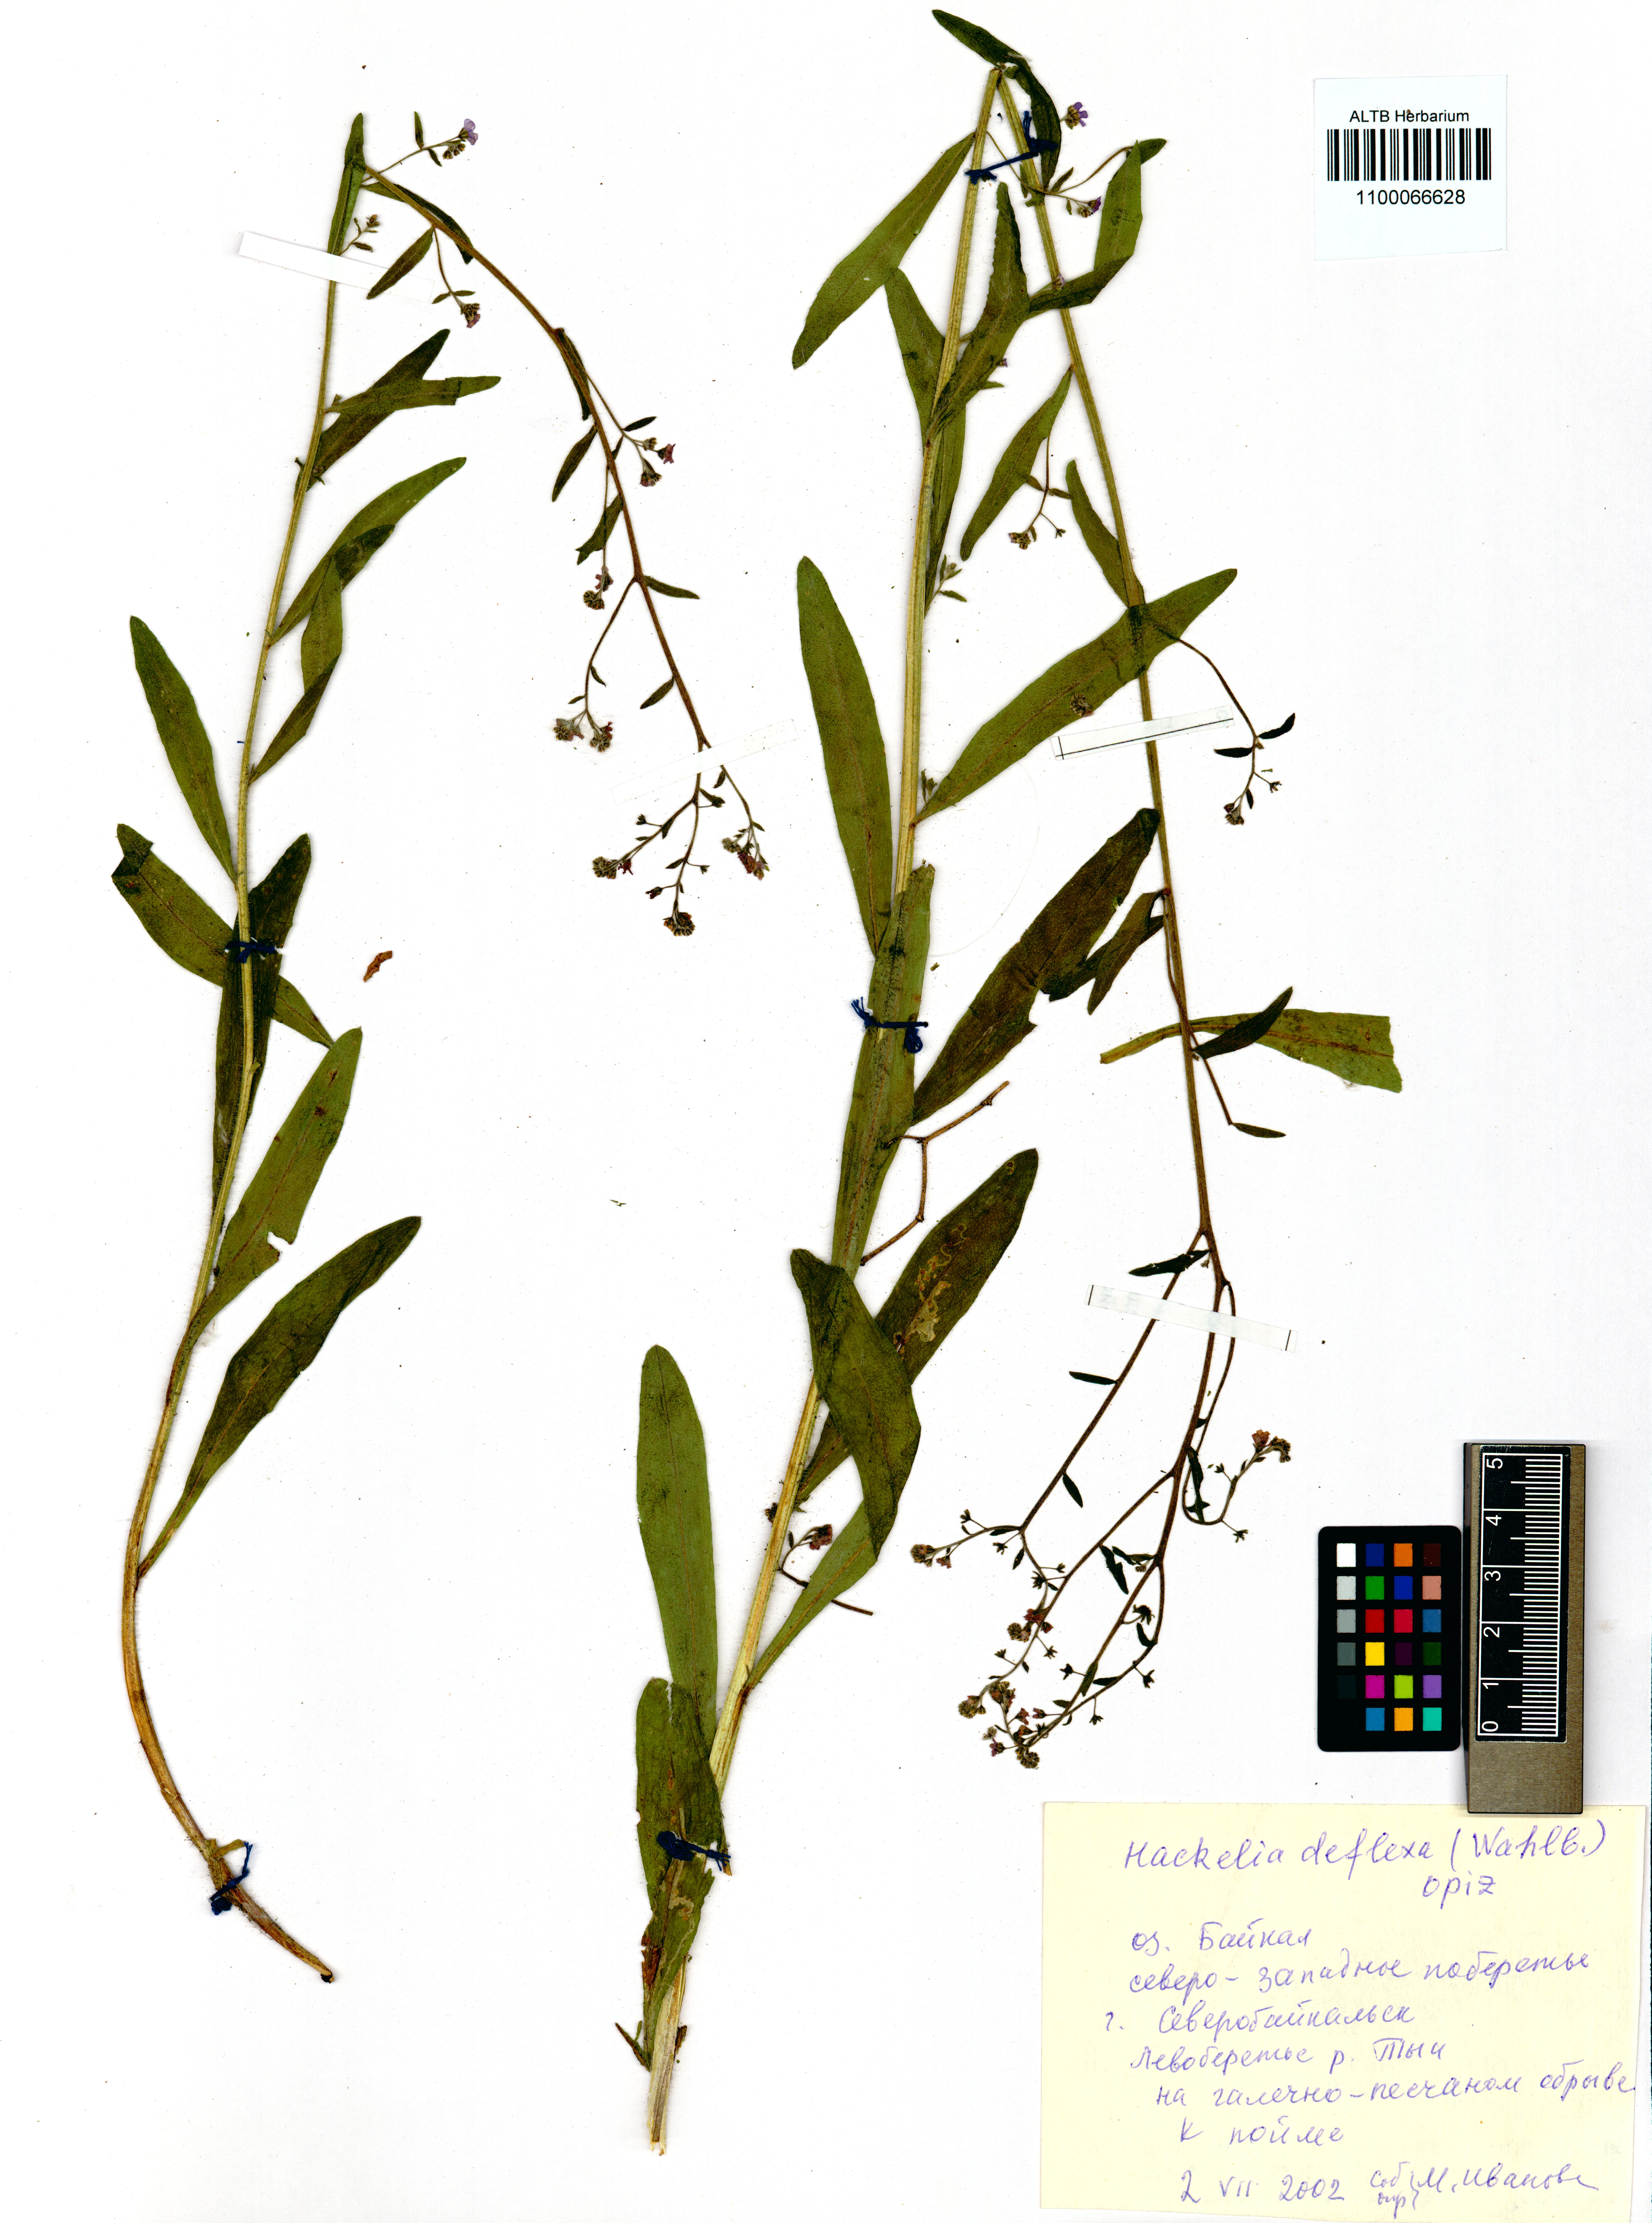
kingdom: Plantae
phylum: Tracheophyta
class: Magnoliopsida
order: Boraginales
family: Boraginaceae
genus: Hackelia
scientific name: Hackelia deflexa
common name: Nodding stickseed
